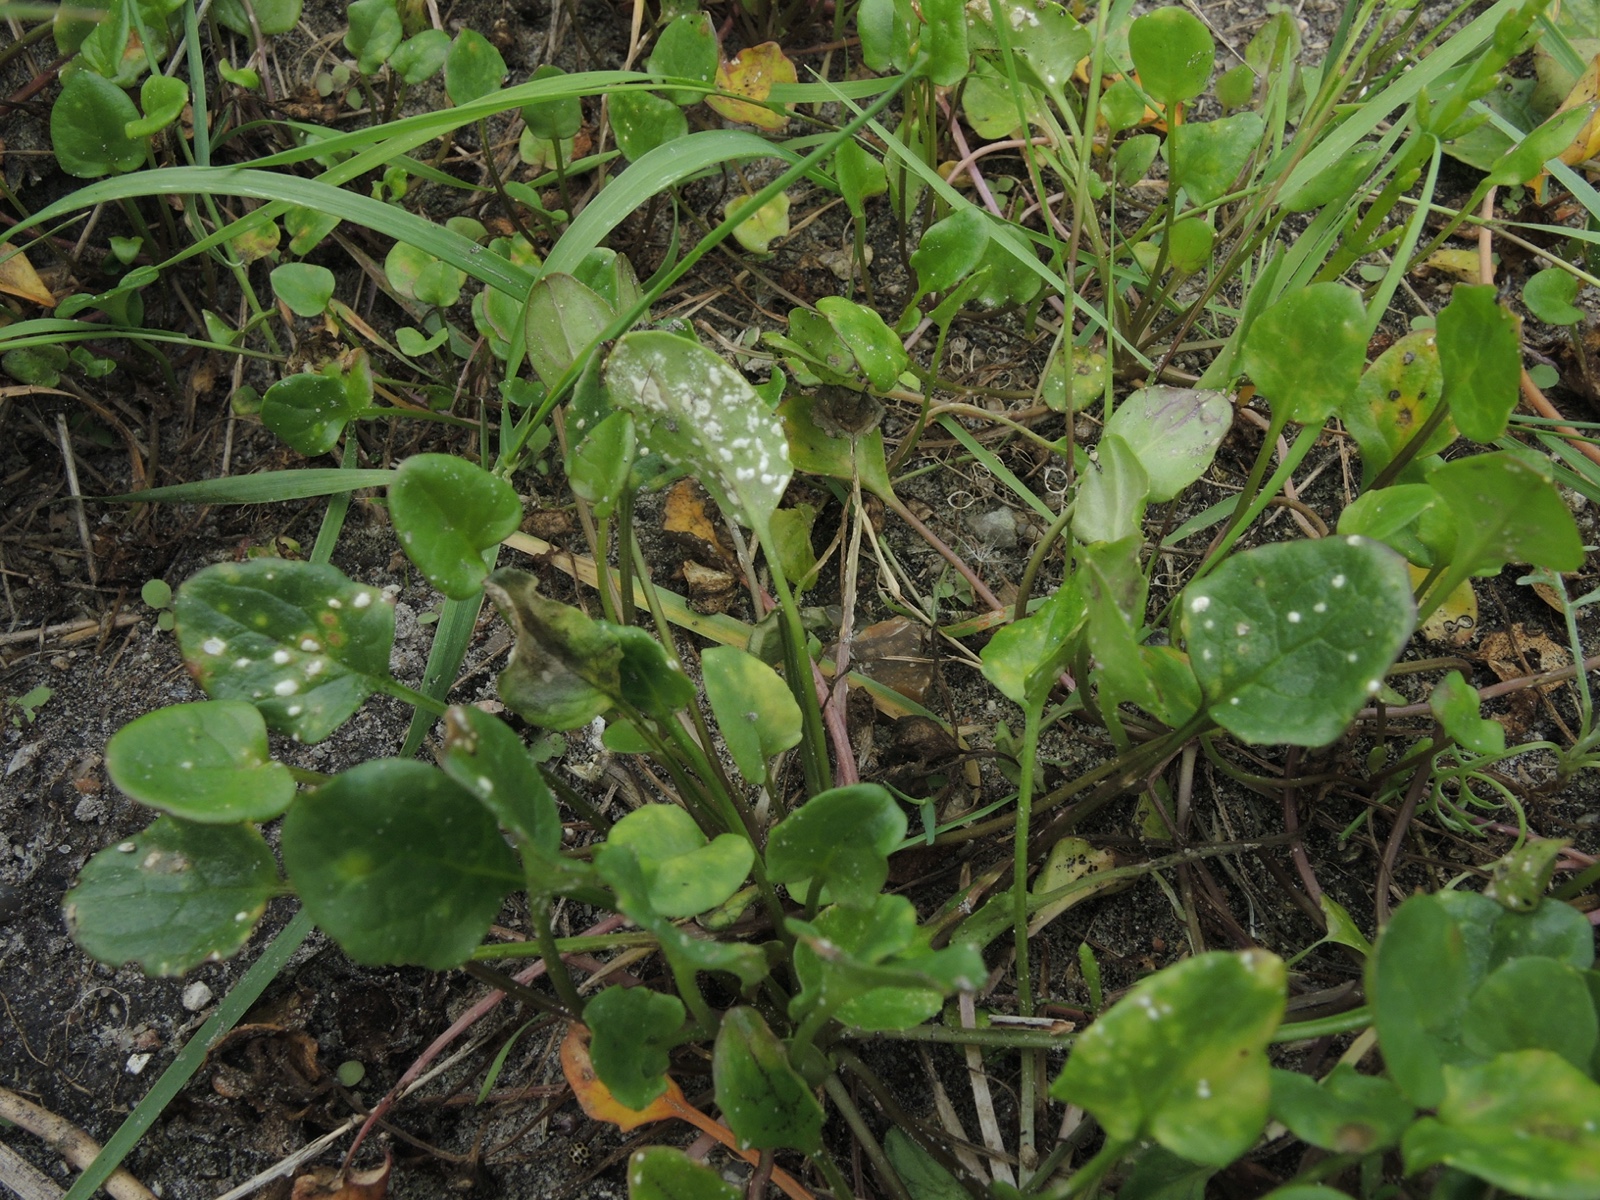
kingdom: Chromista
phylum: Oomycota
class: Peronosporea
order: Albuginales
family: Albuginaceae
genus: Albugo
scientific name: Albugo candida
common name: Crucifer white blister
